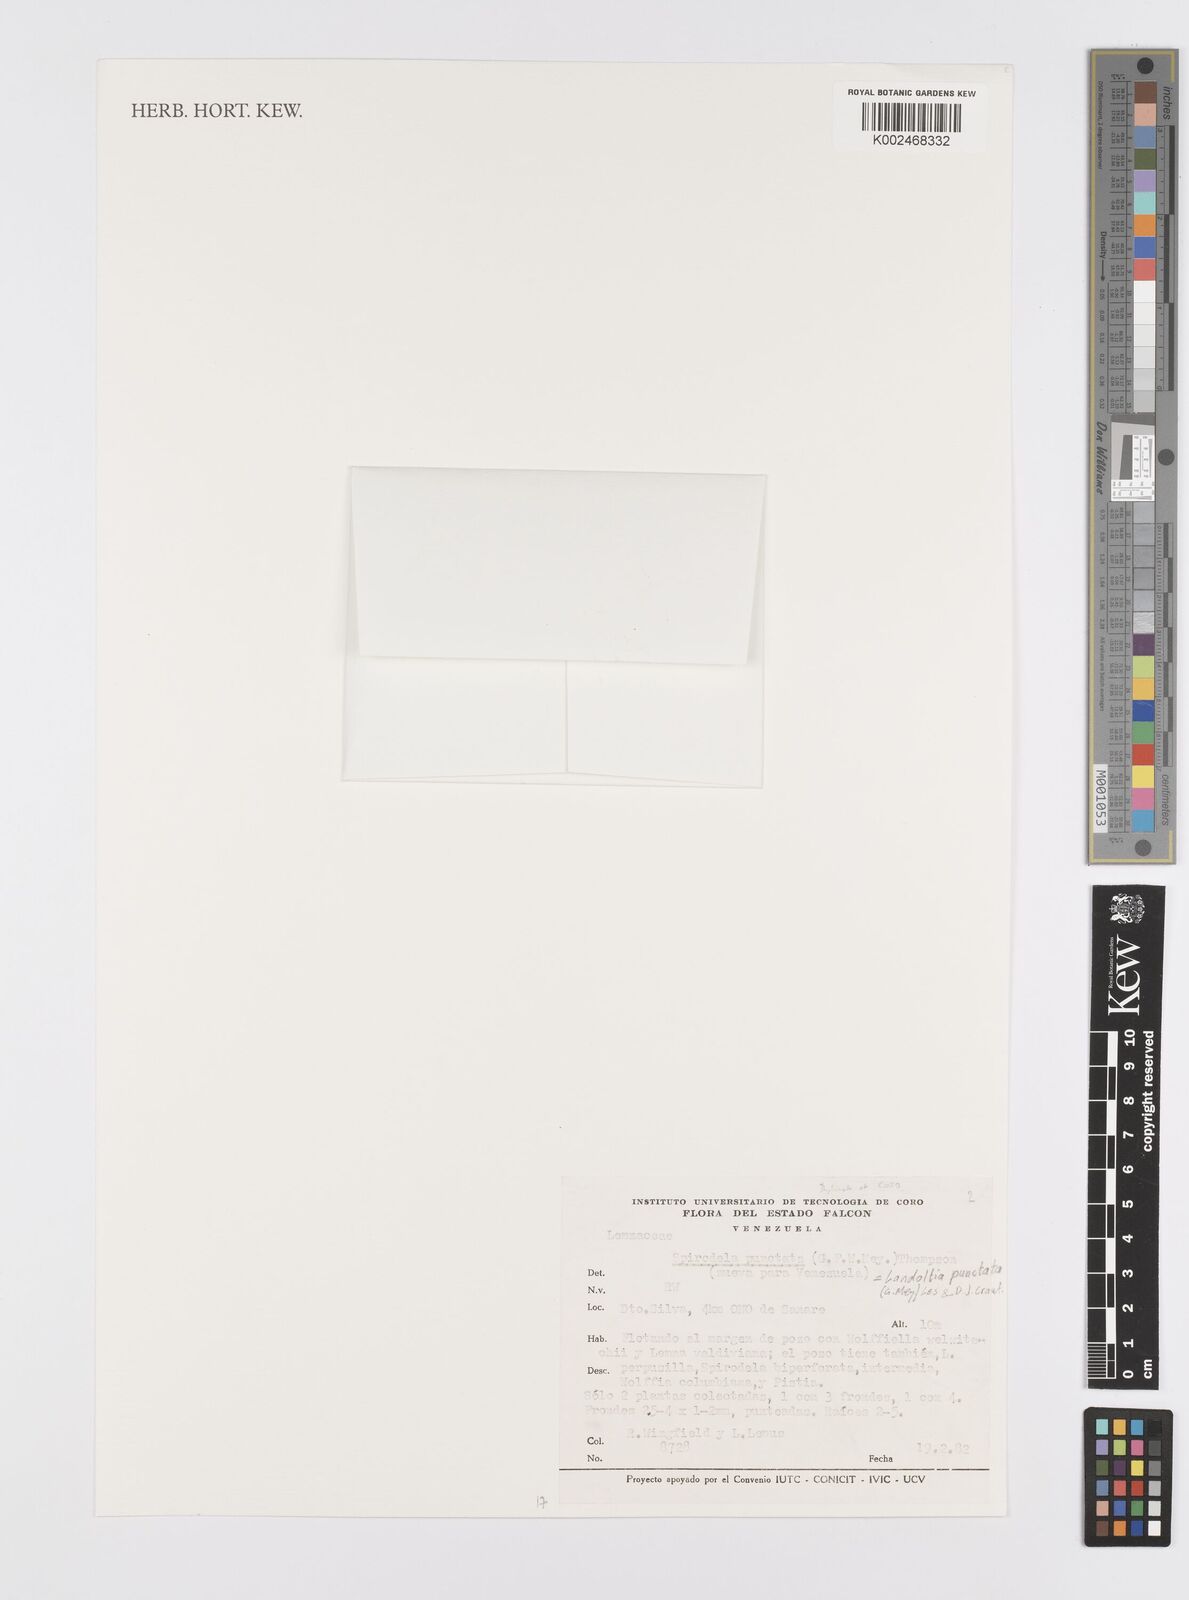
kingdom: Plantae
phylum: Tracheophyta
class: Liliopsida
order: Alismatales
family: Araceae
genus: Spirodela
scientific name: Spirodela punctata
